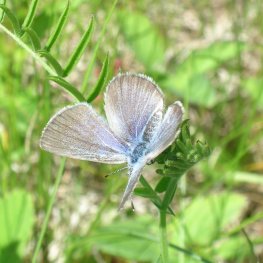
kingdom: Animalia
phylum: Arthropoda
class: Insecta
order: Lepidoptera
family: Lycaenidae
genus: Glaucopsyche
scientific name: Glaucopsyche lygdamus
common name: Silvery Blue
